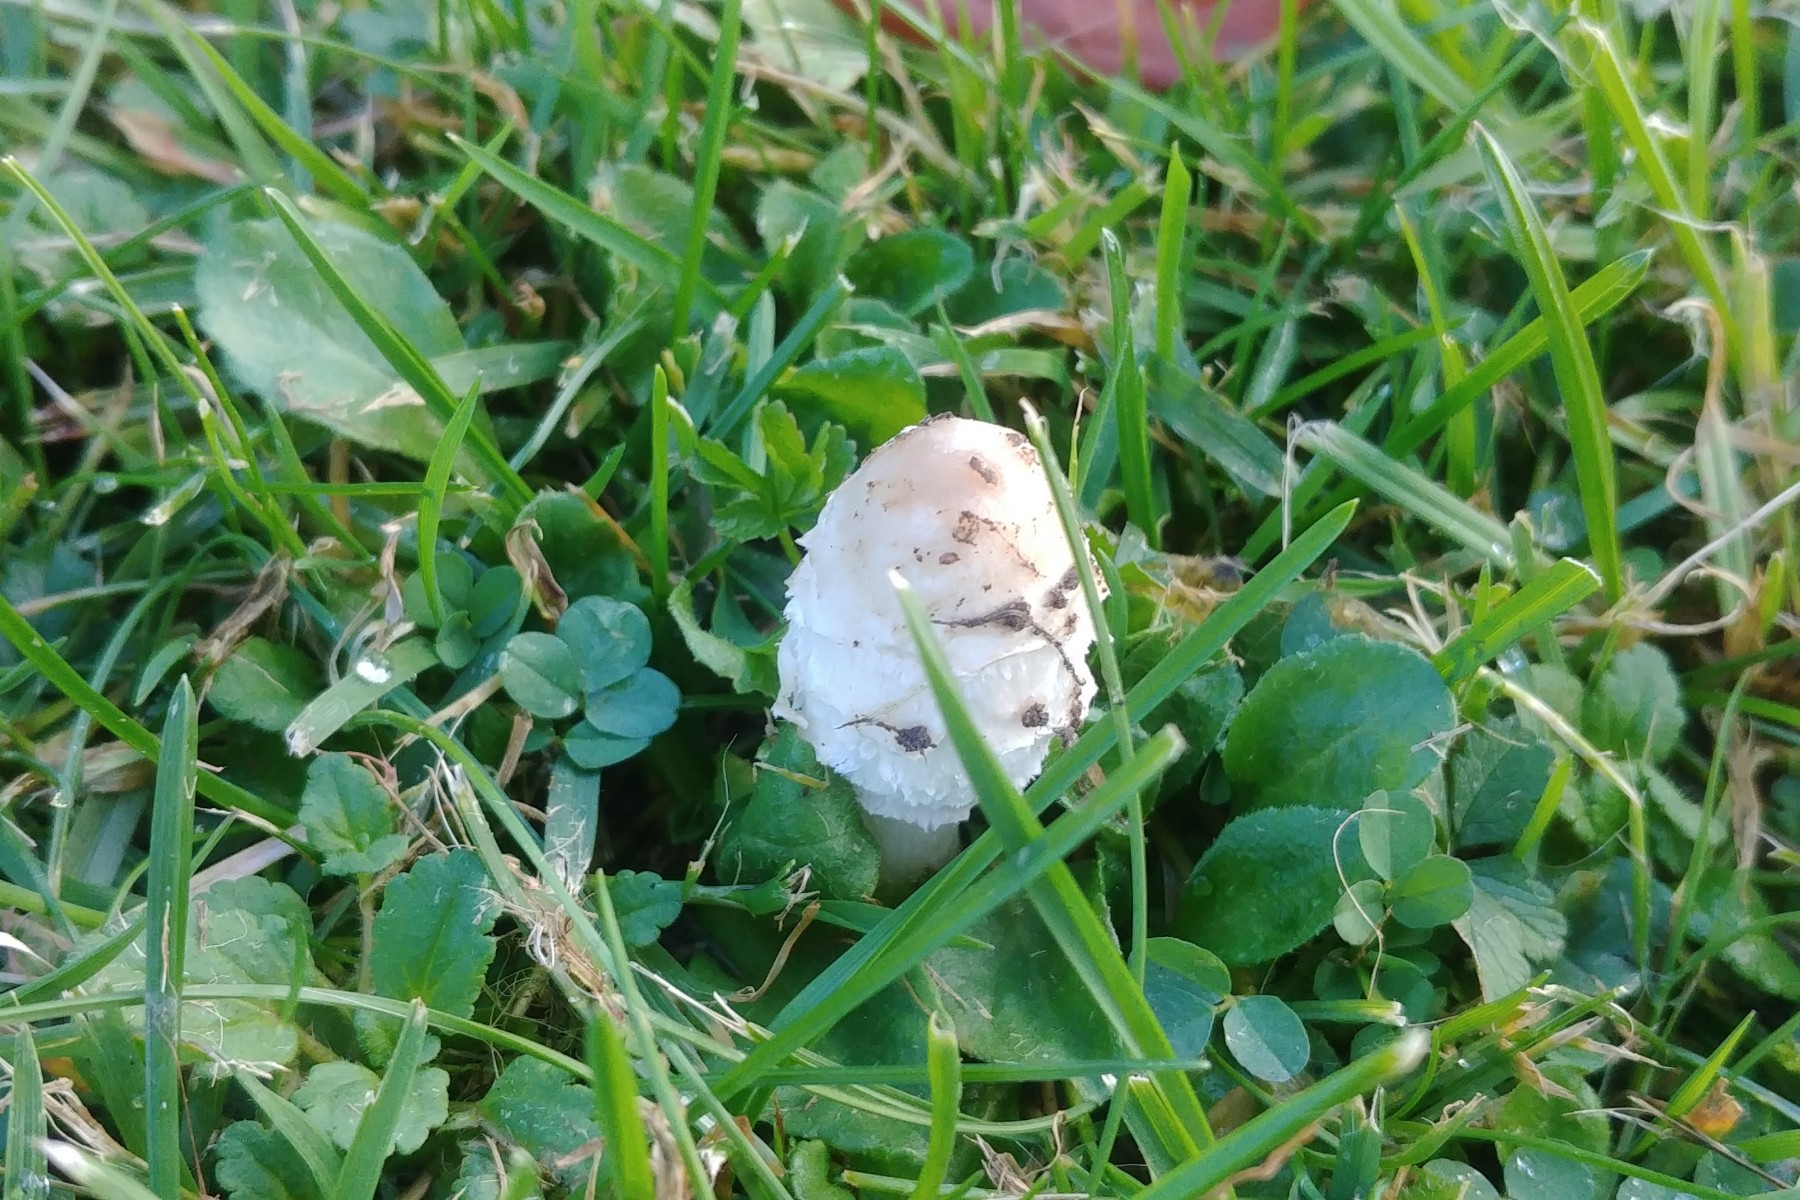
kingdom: Fungi
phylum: Basidiomycota
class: Agaricomycetes
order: Agaricales
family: Agaricaceae
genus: Coprinus
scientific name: Coprinus comatus
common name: stor parykhat
